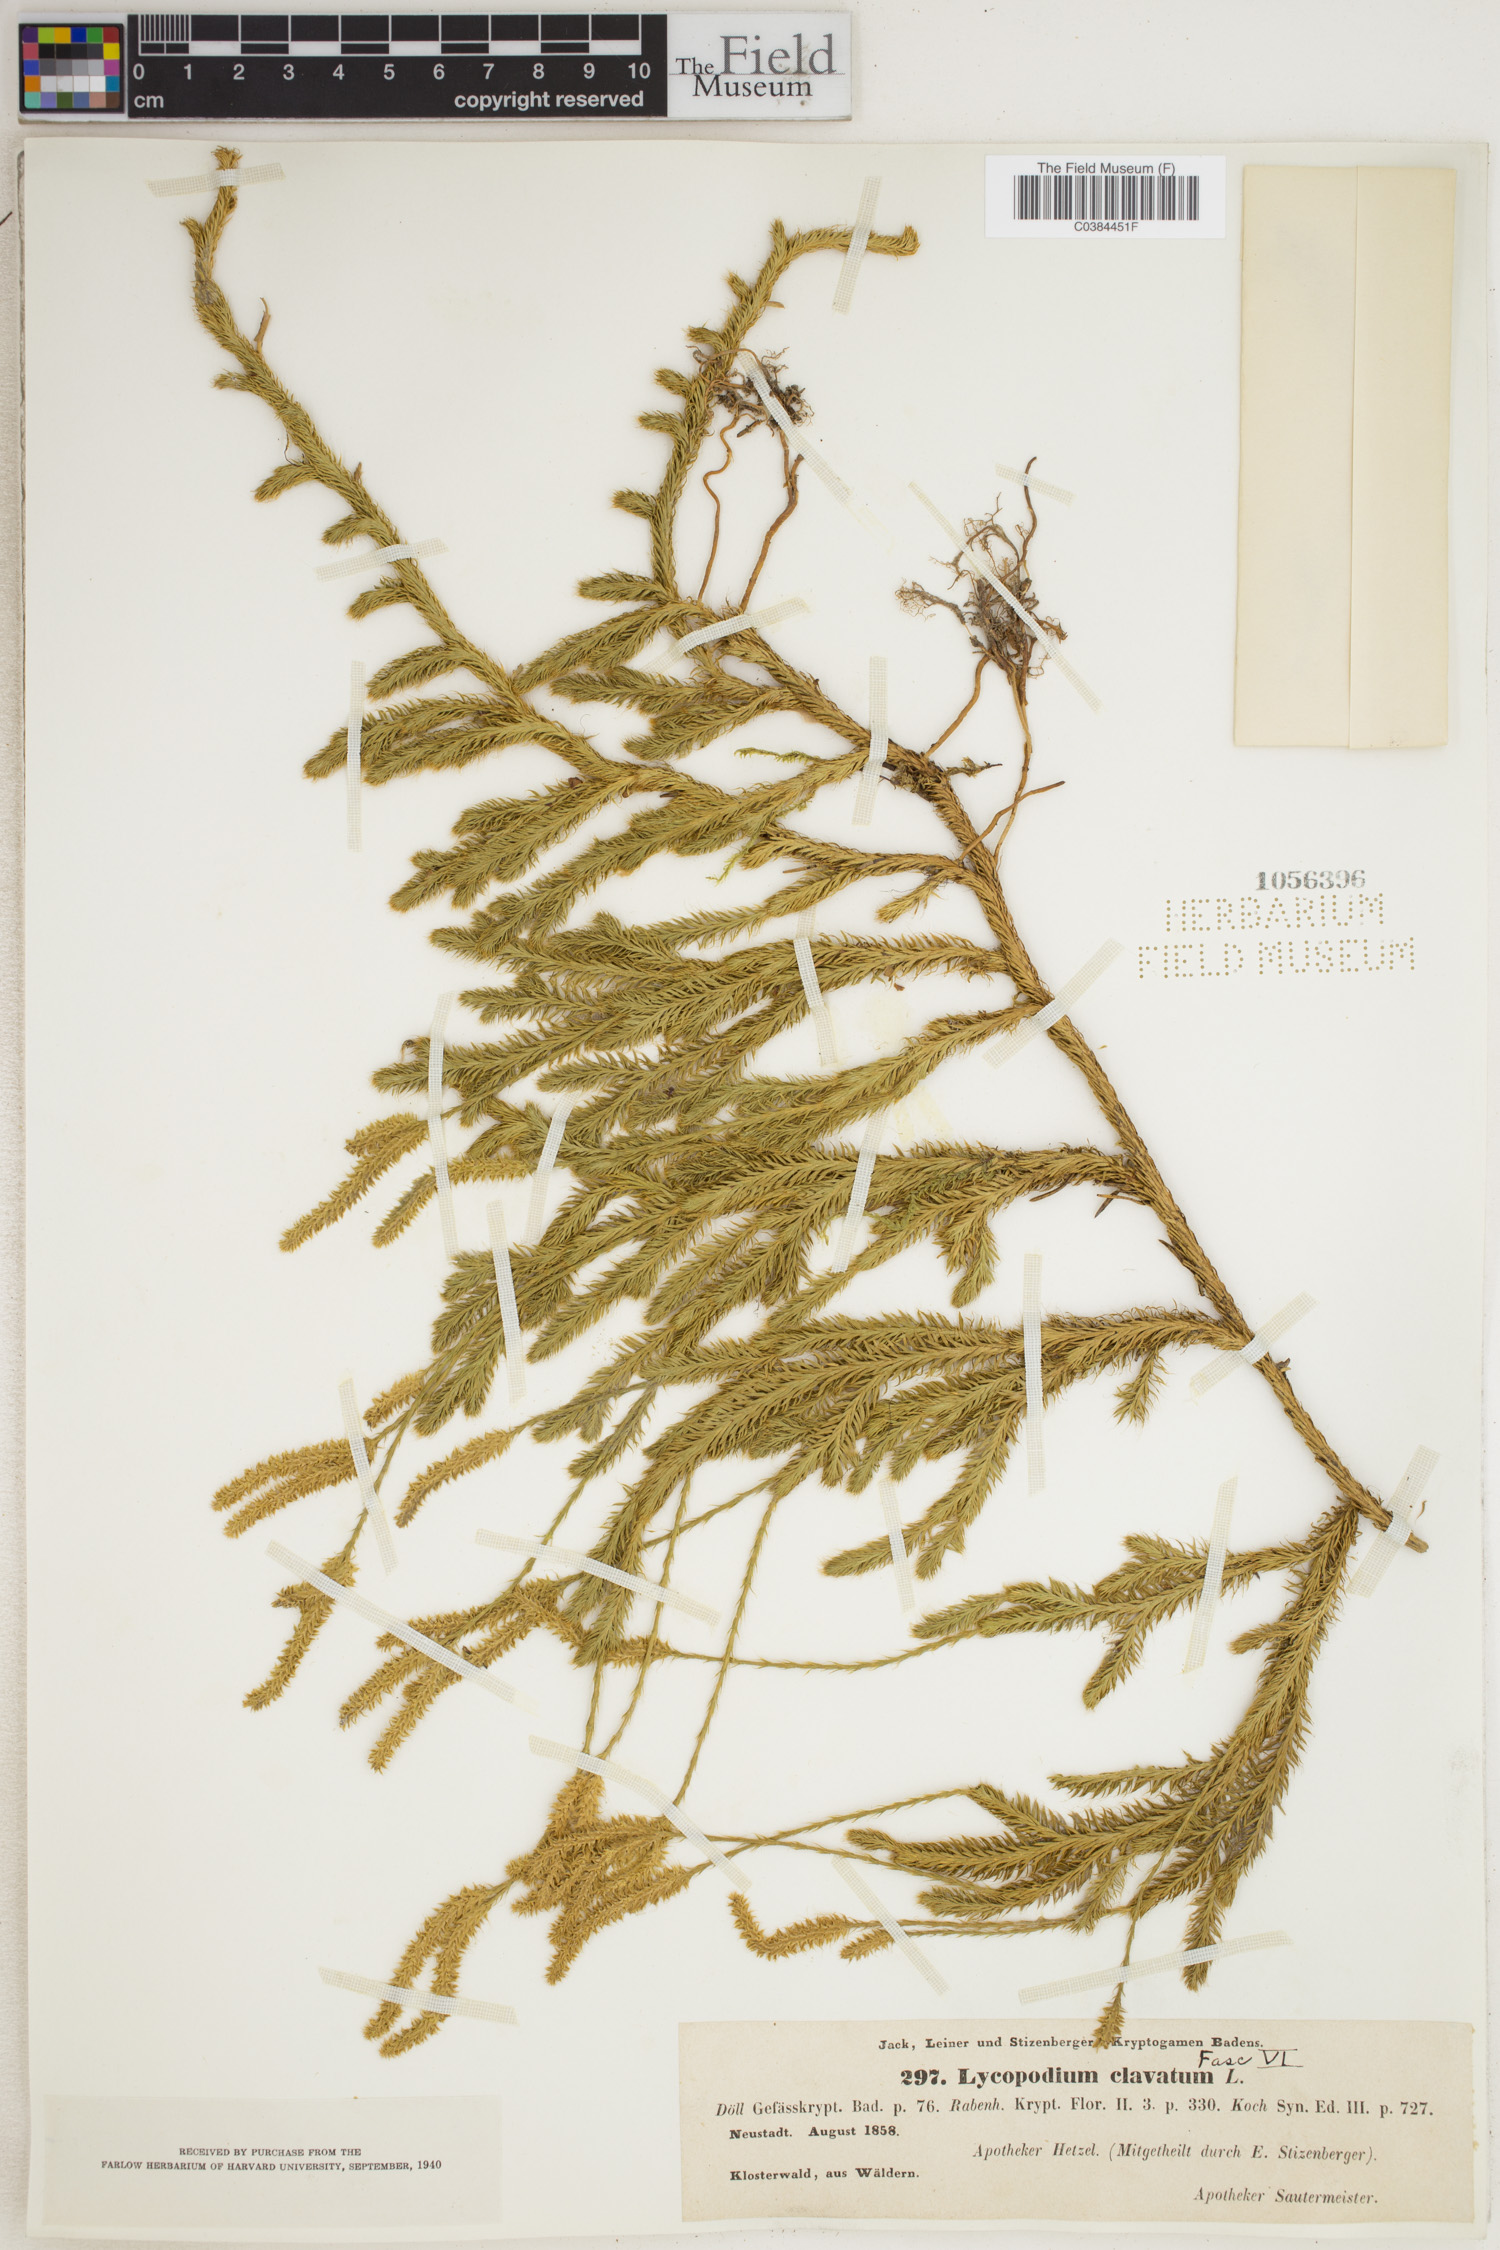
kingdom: Plantae
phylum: Tracheophyta
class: Lycopodiopsida
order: Lycopodiales
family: Lycopodiaceae
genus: Lycopodium
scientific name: Lycopodium clavatum
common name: Stag's-horn clubmoss
